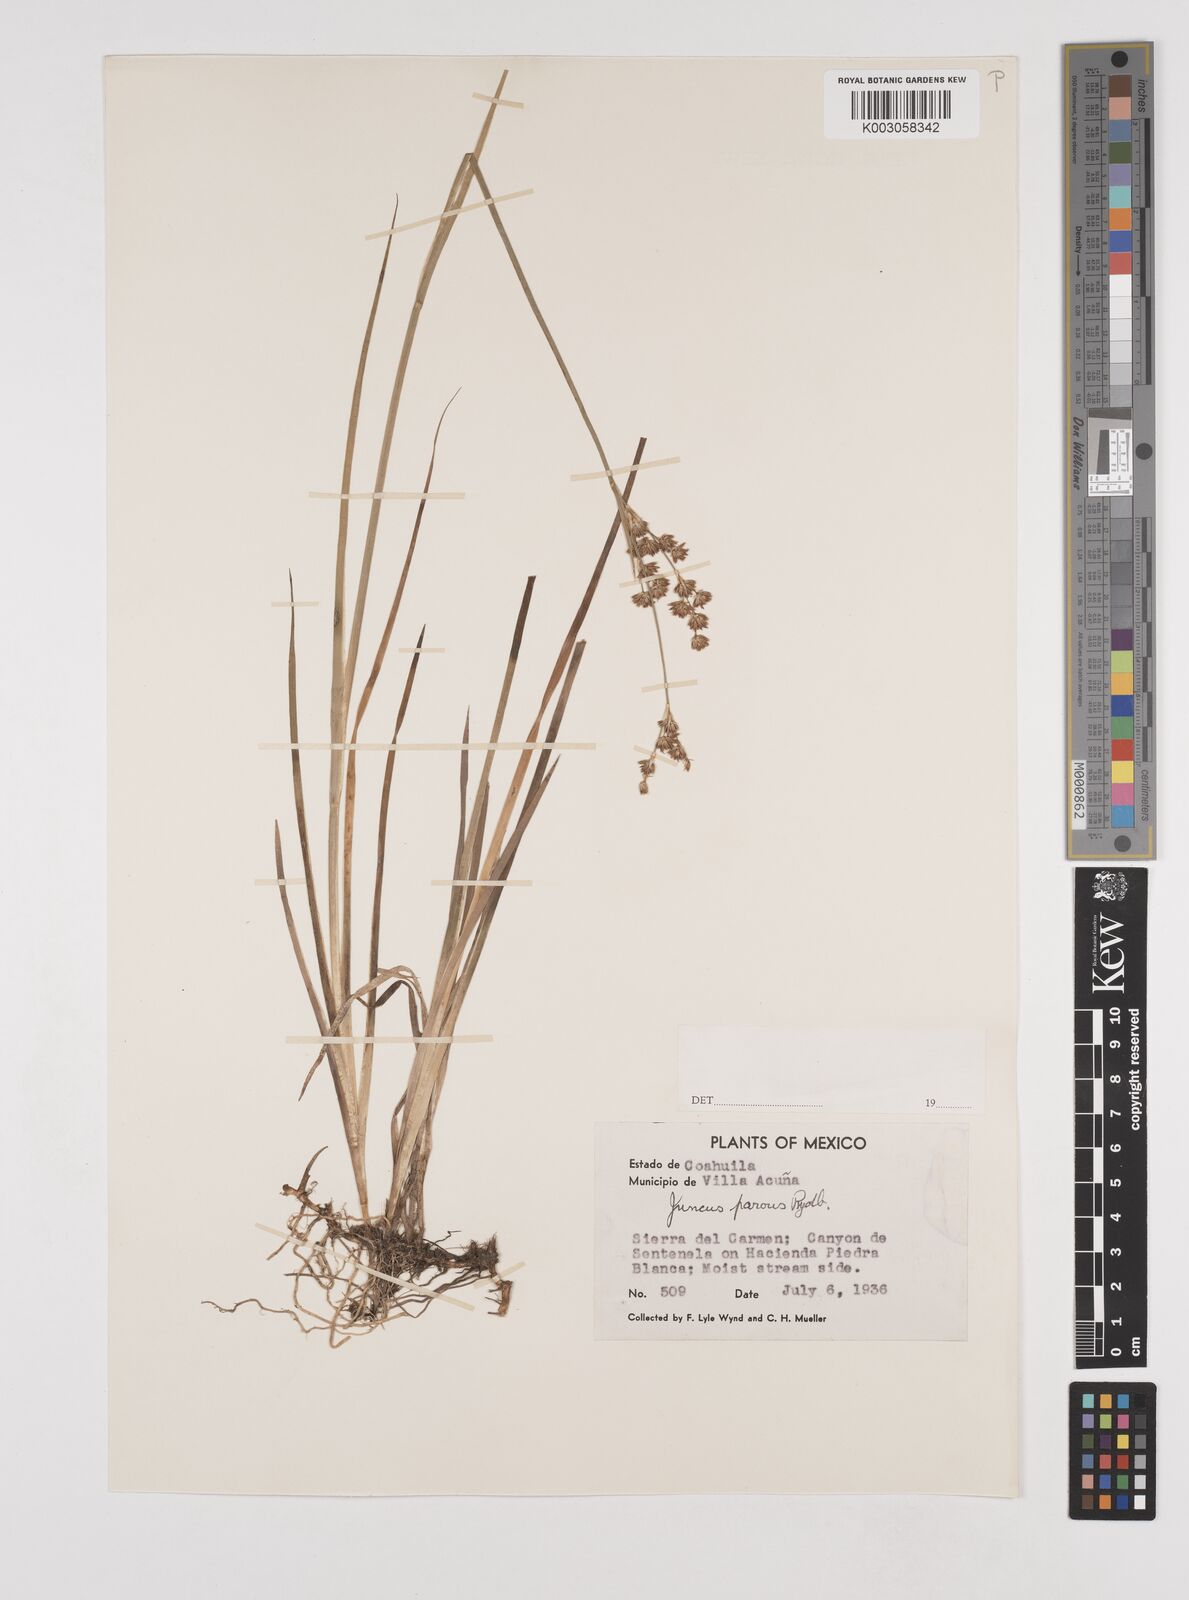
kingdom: Plantae
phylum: Tracheophyta
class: Liliopsida
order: Poales
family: Juncaceae
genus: Juncus
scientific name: Juncus saximontanus
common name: Rocky mountain rush
